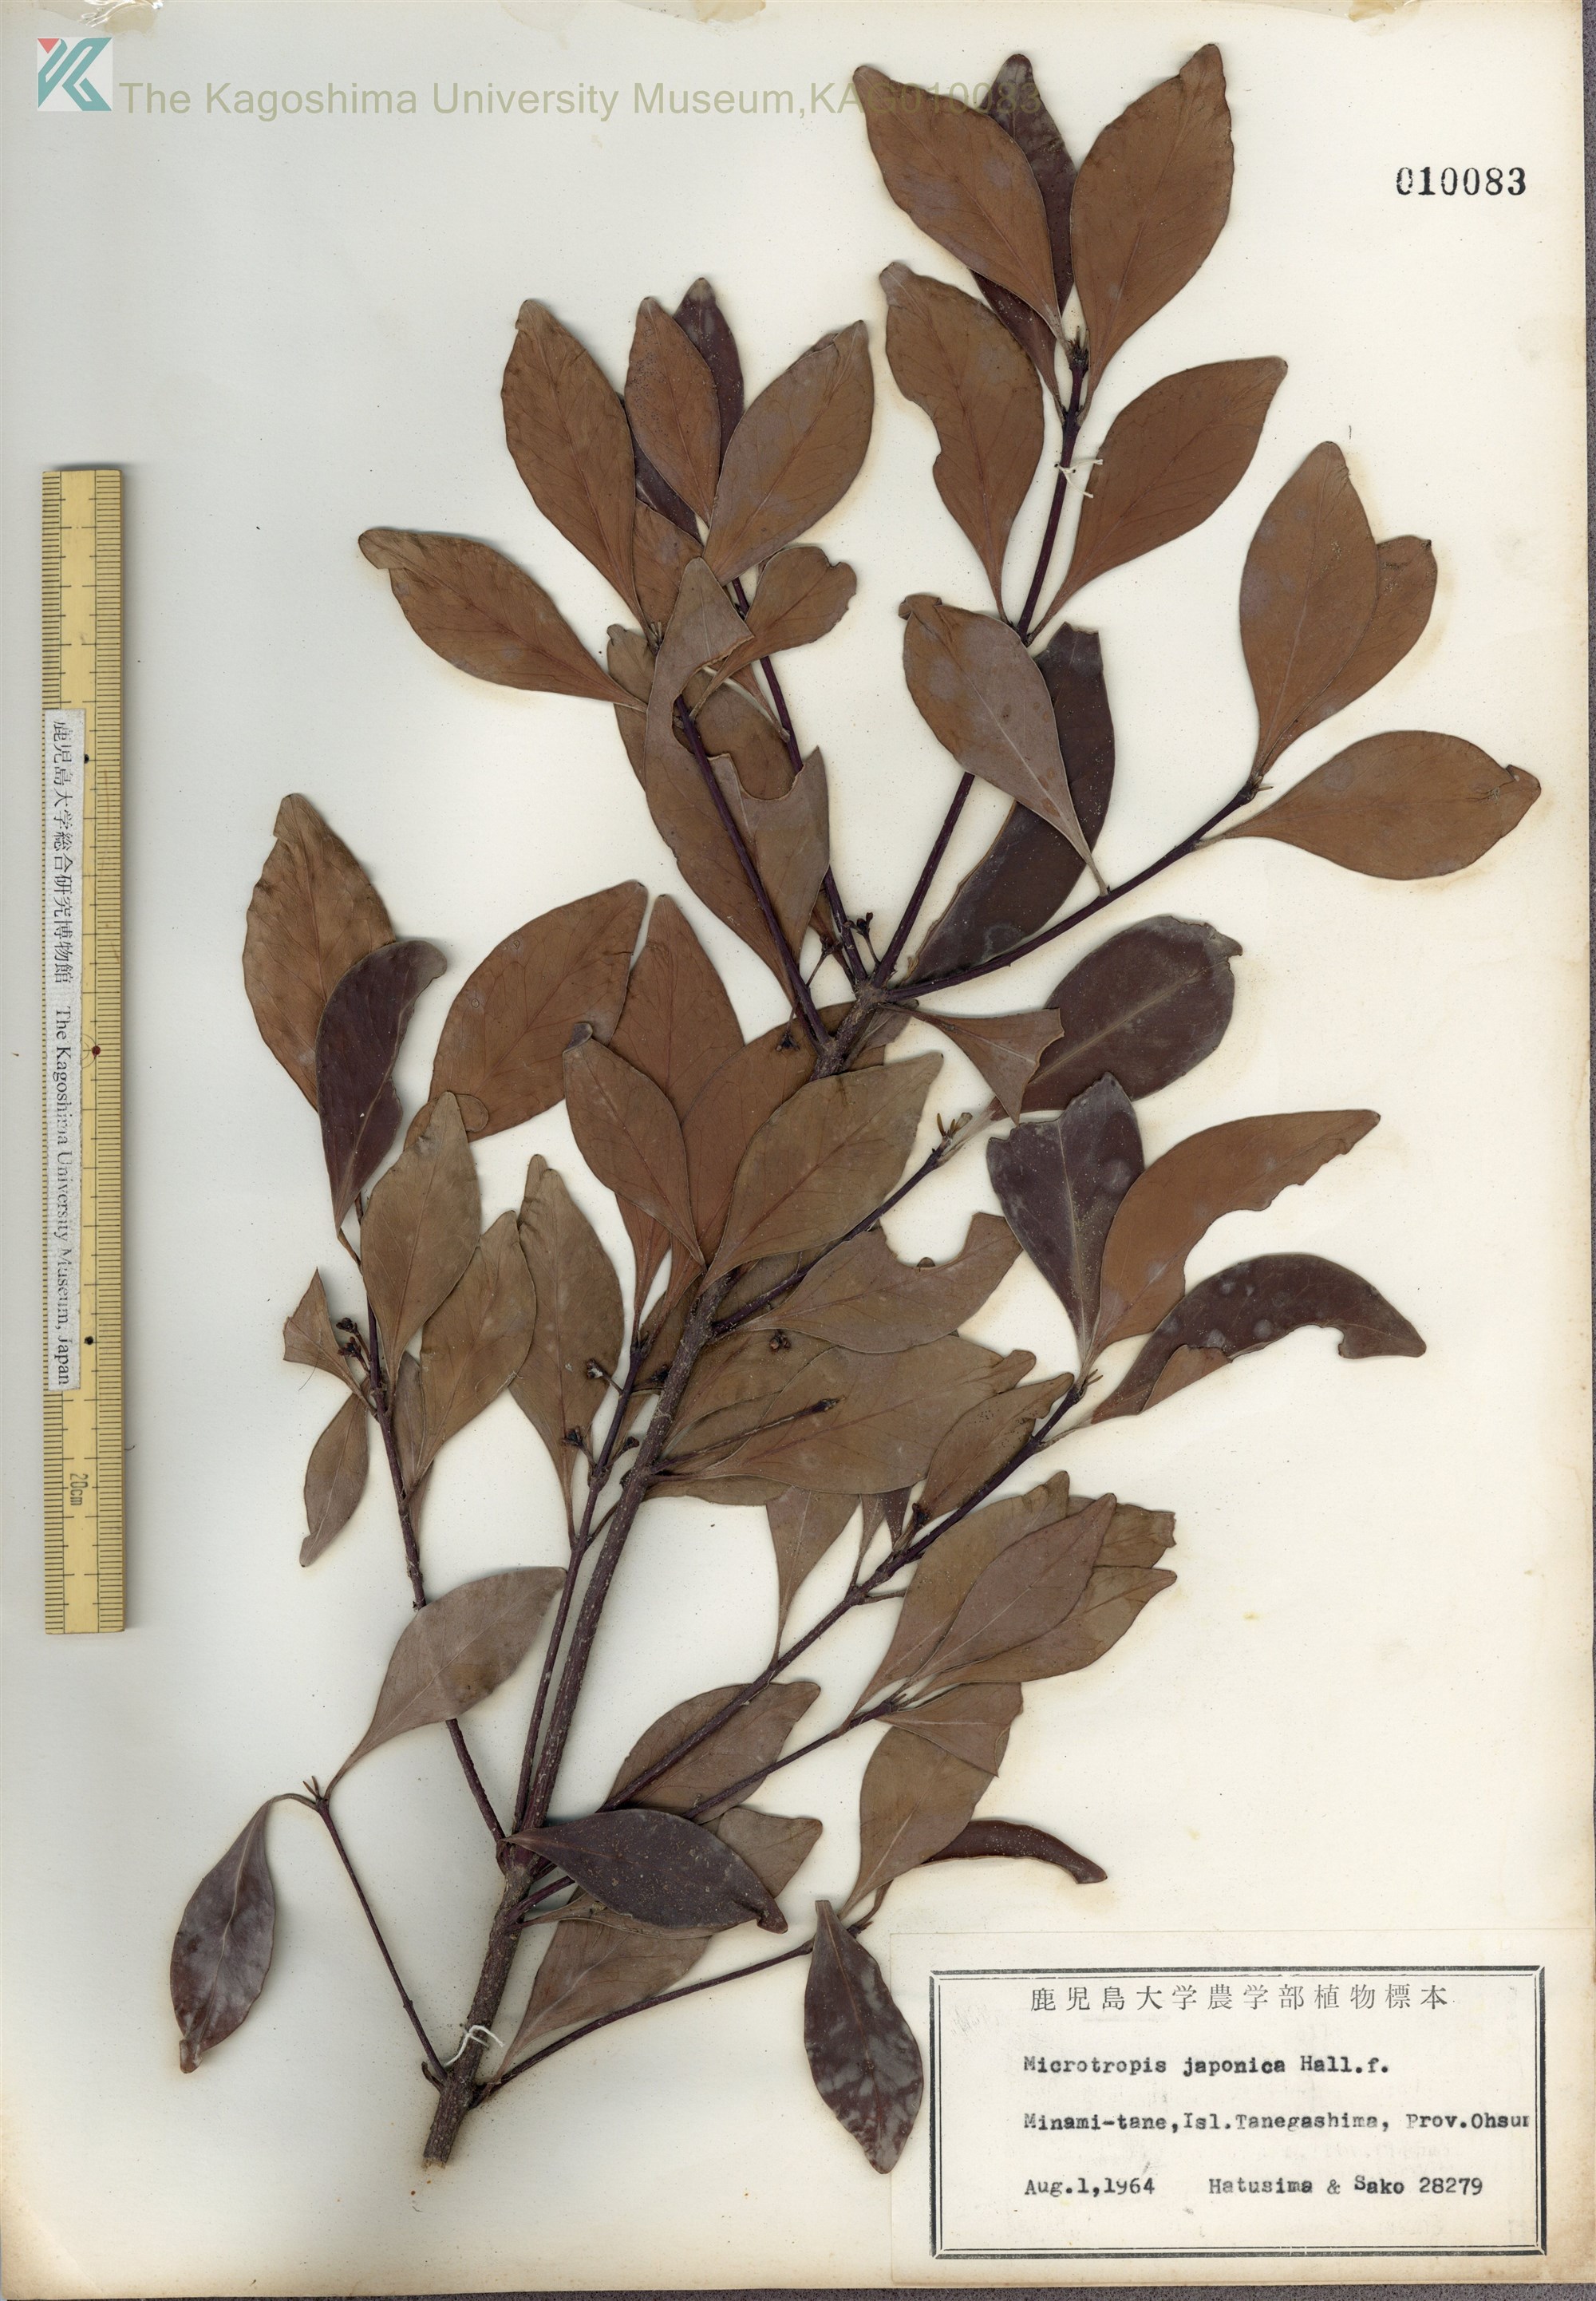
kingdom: Plantae
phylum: Tracheophyta
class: Magnoliopsida
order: Celastrales
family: Celastraceae
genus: Microtropis
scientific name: Microtropis japonica
